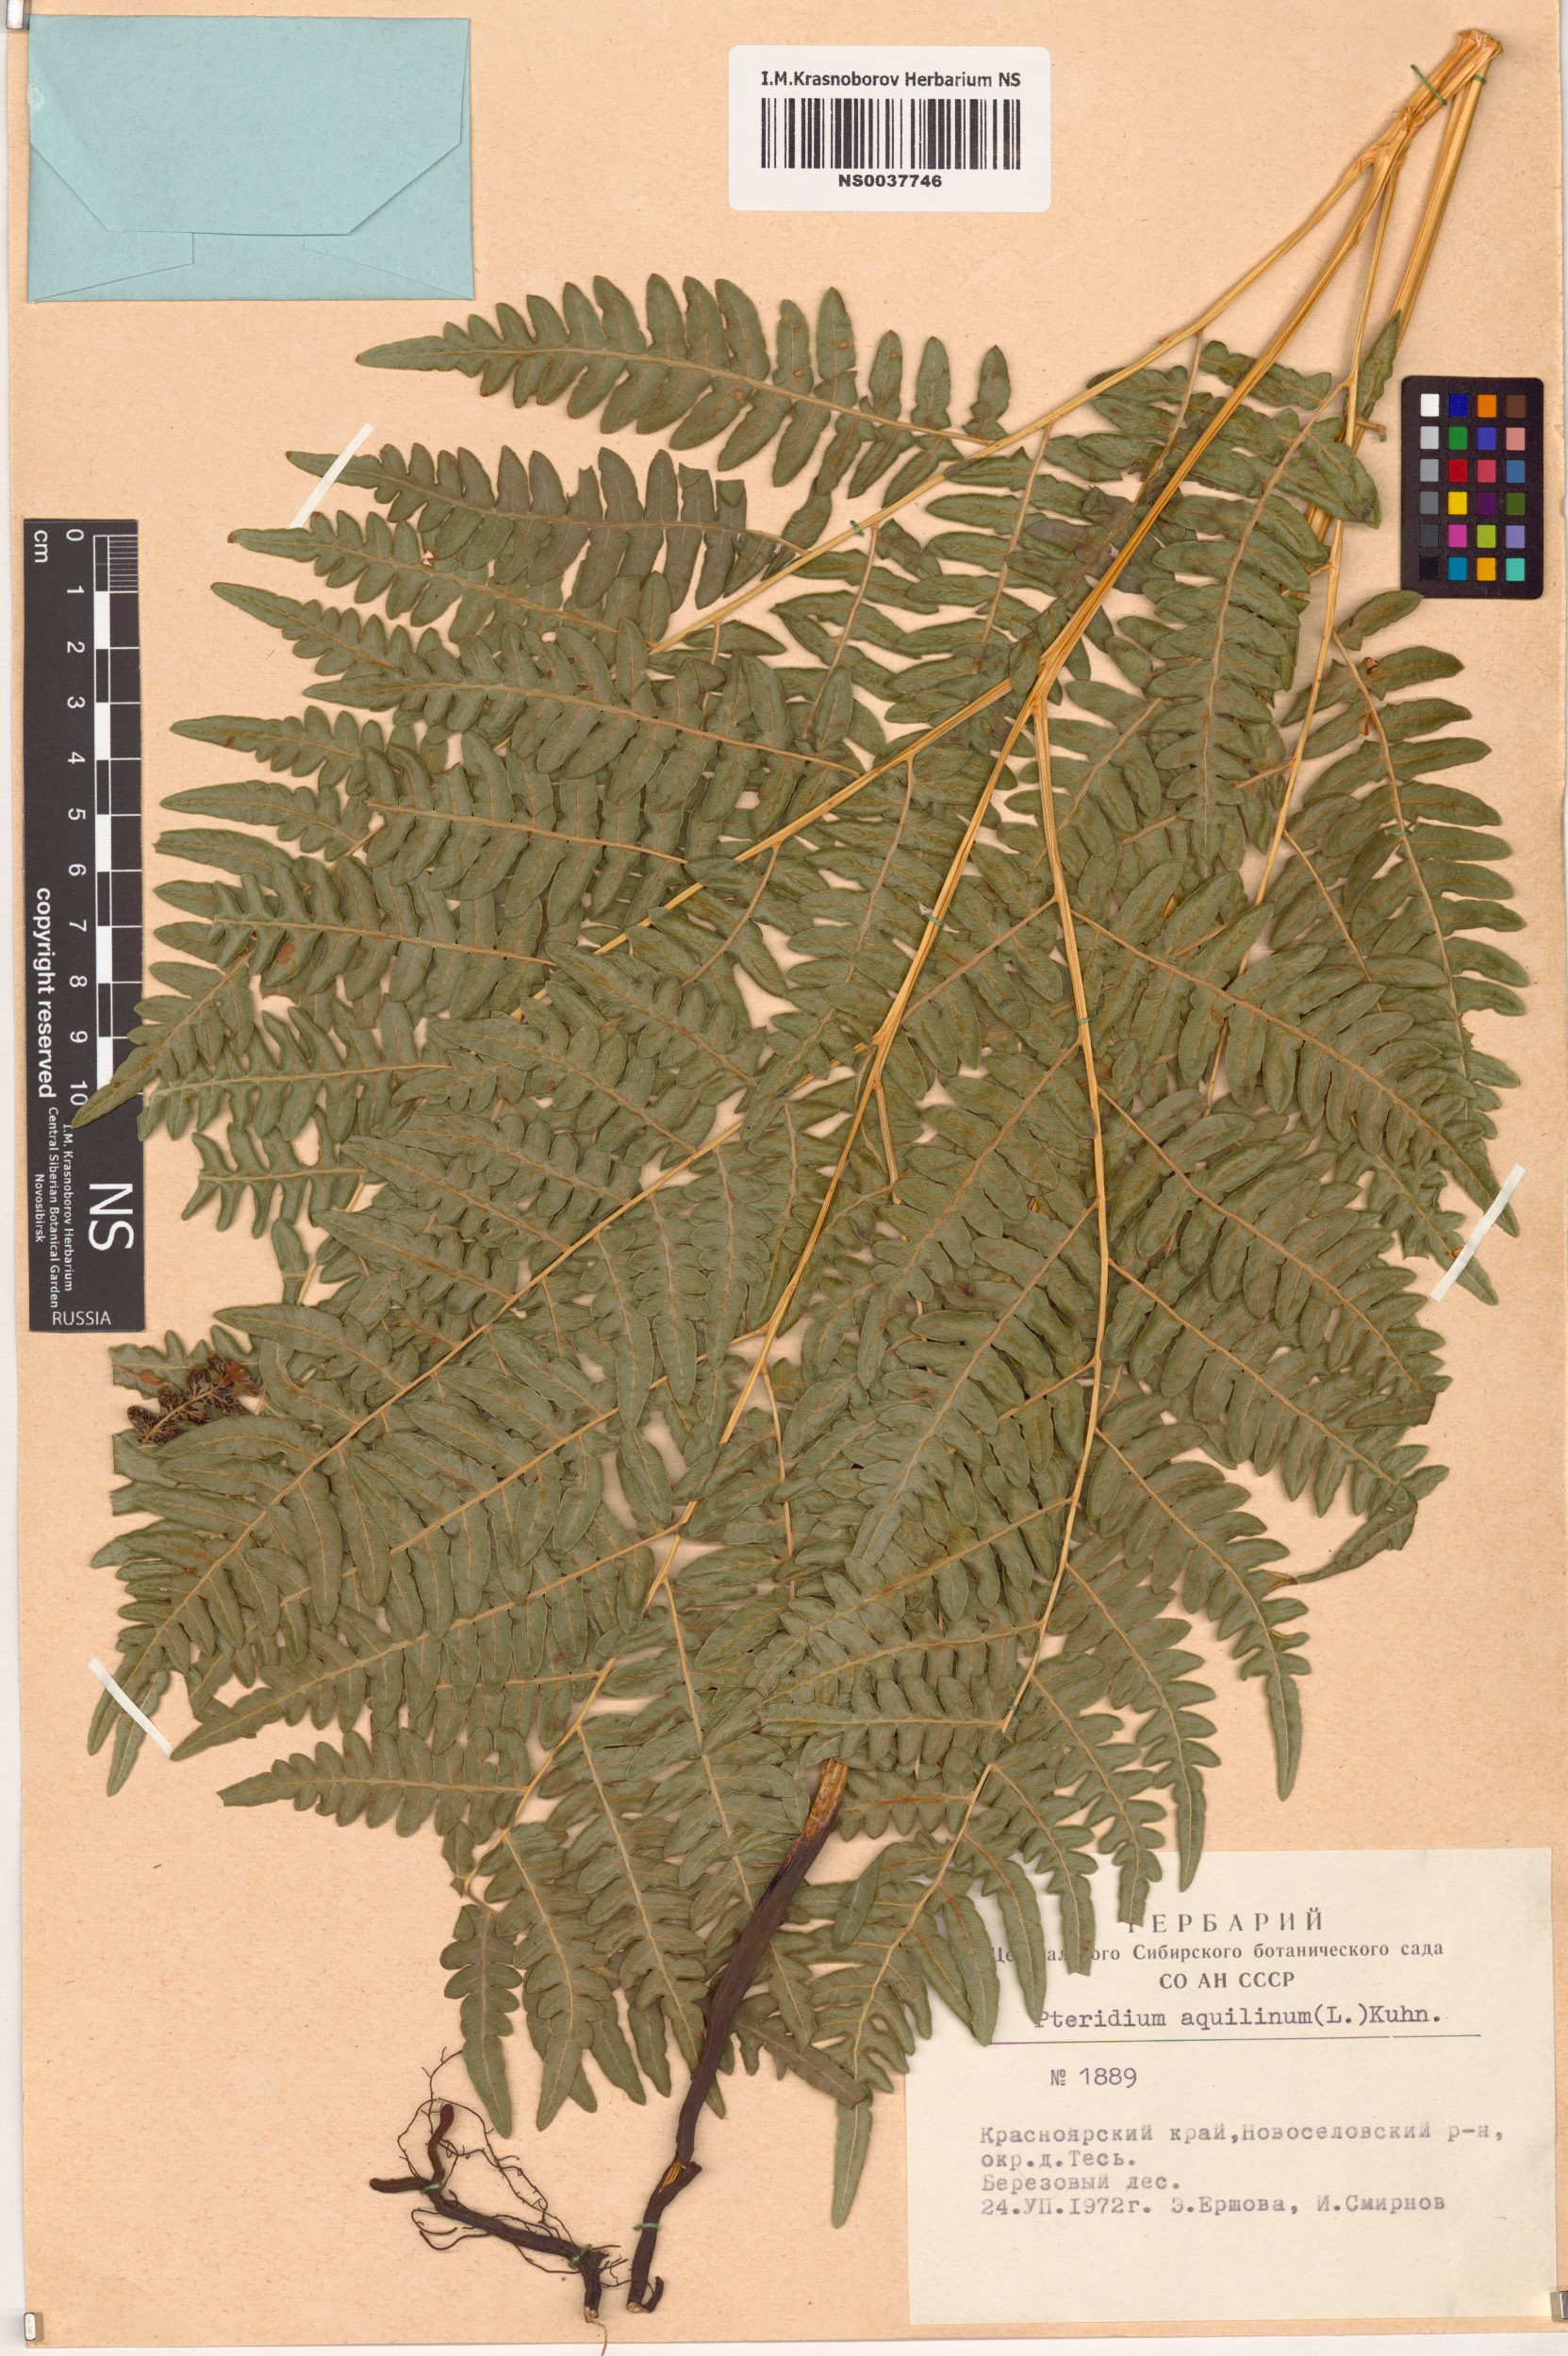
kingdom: Plantae
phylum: Tracheophyta
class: Polypodiopsida
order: Polypodiales
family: Dennstaedtiaceae
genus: Pteridium
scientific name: Pteridium aquilinum
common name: Bracken
